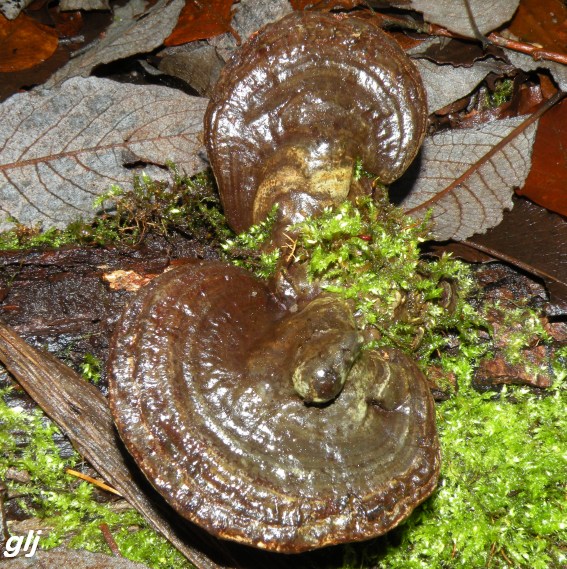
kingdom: Fungi
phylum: Basidiomycota
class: Agaricomycetes
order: Polyporales
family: Polyporaceae
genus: Ganoderma
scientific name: Ganoderma applanatum
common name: flad lakporesvamp
